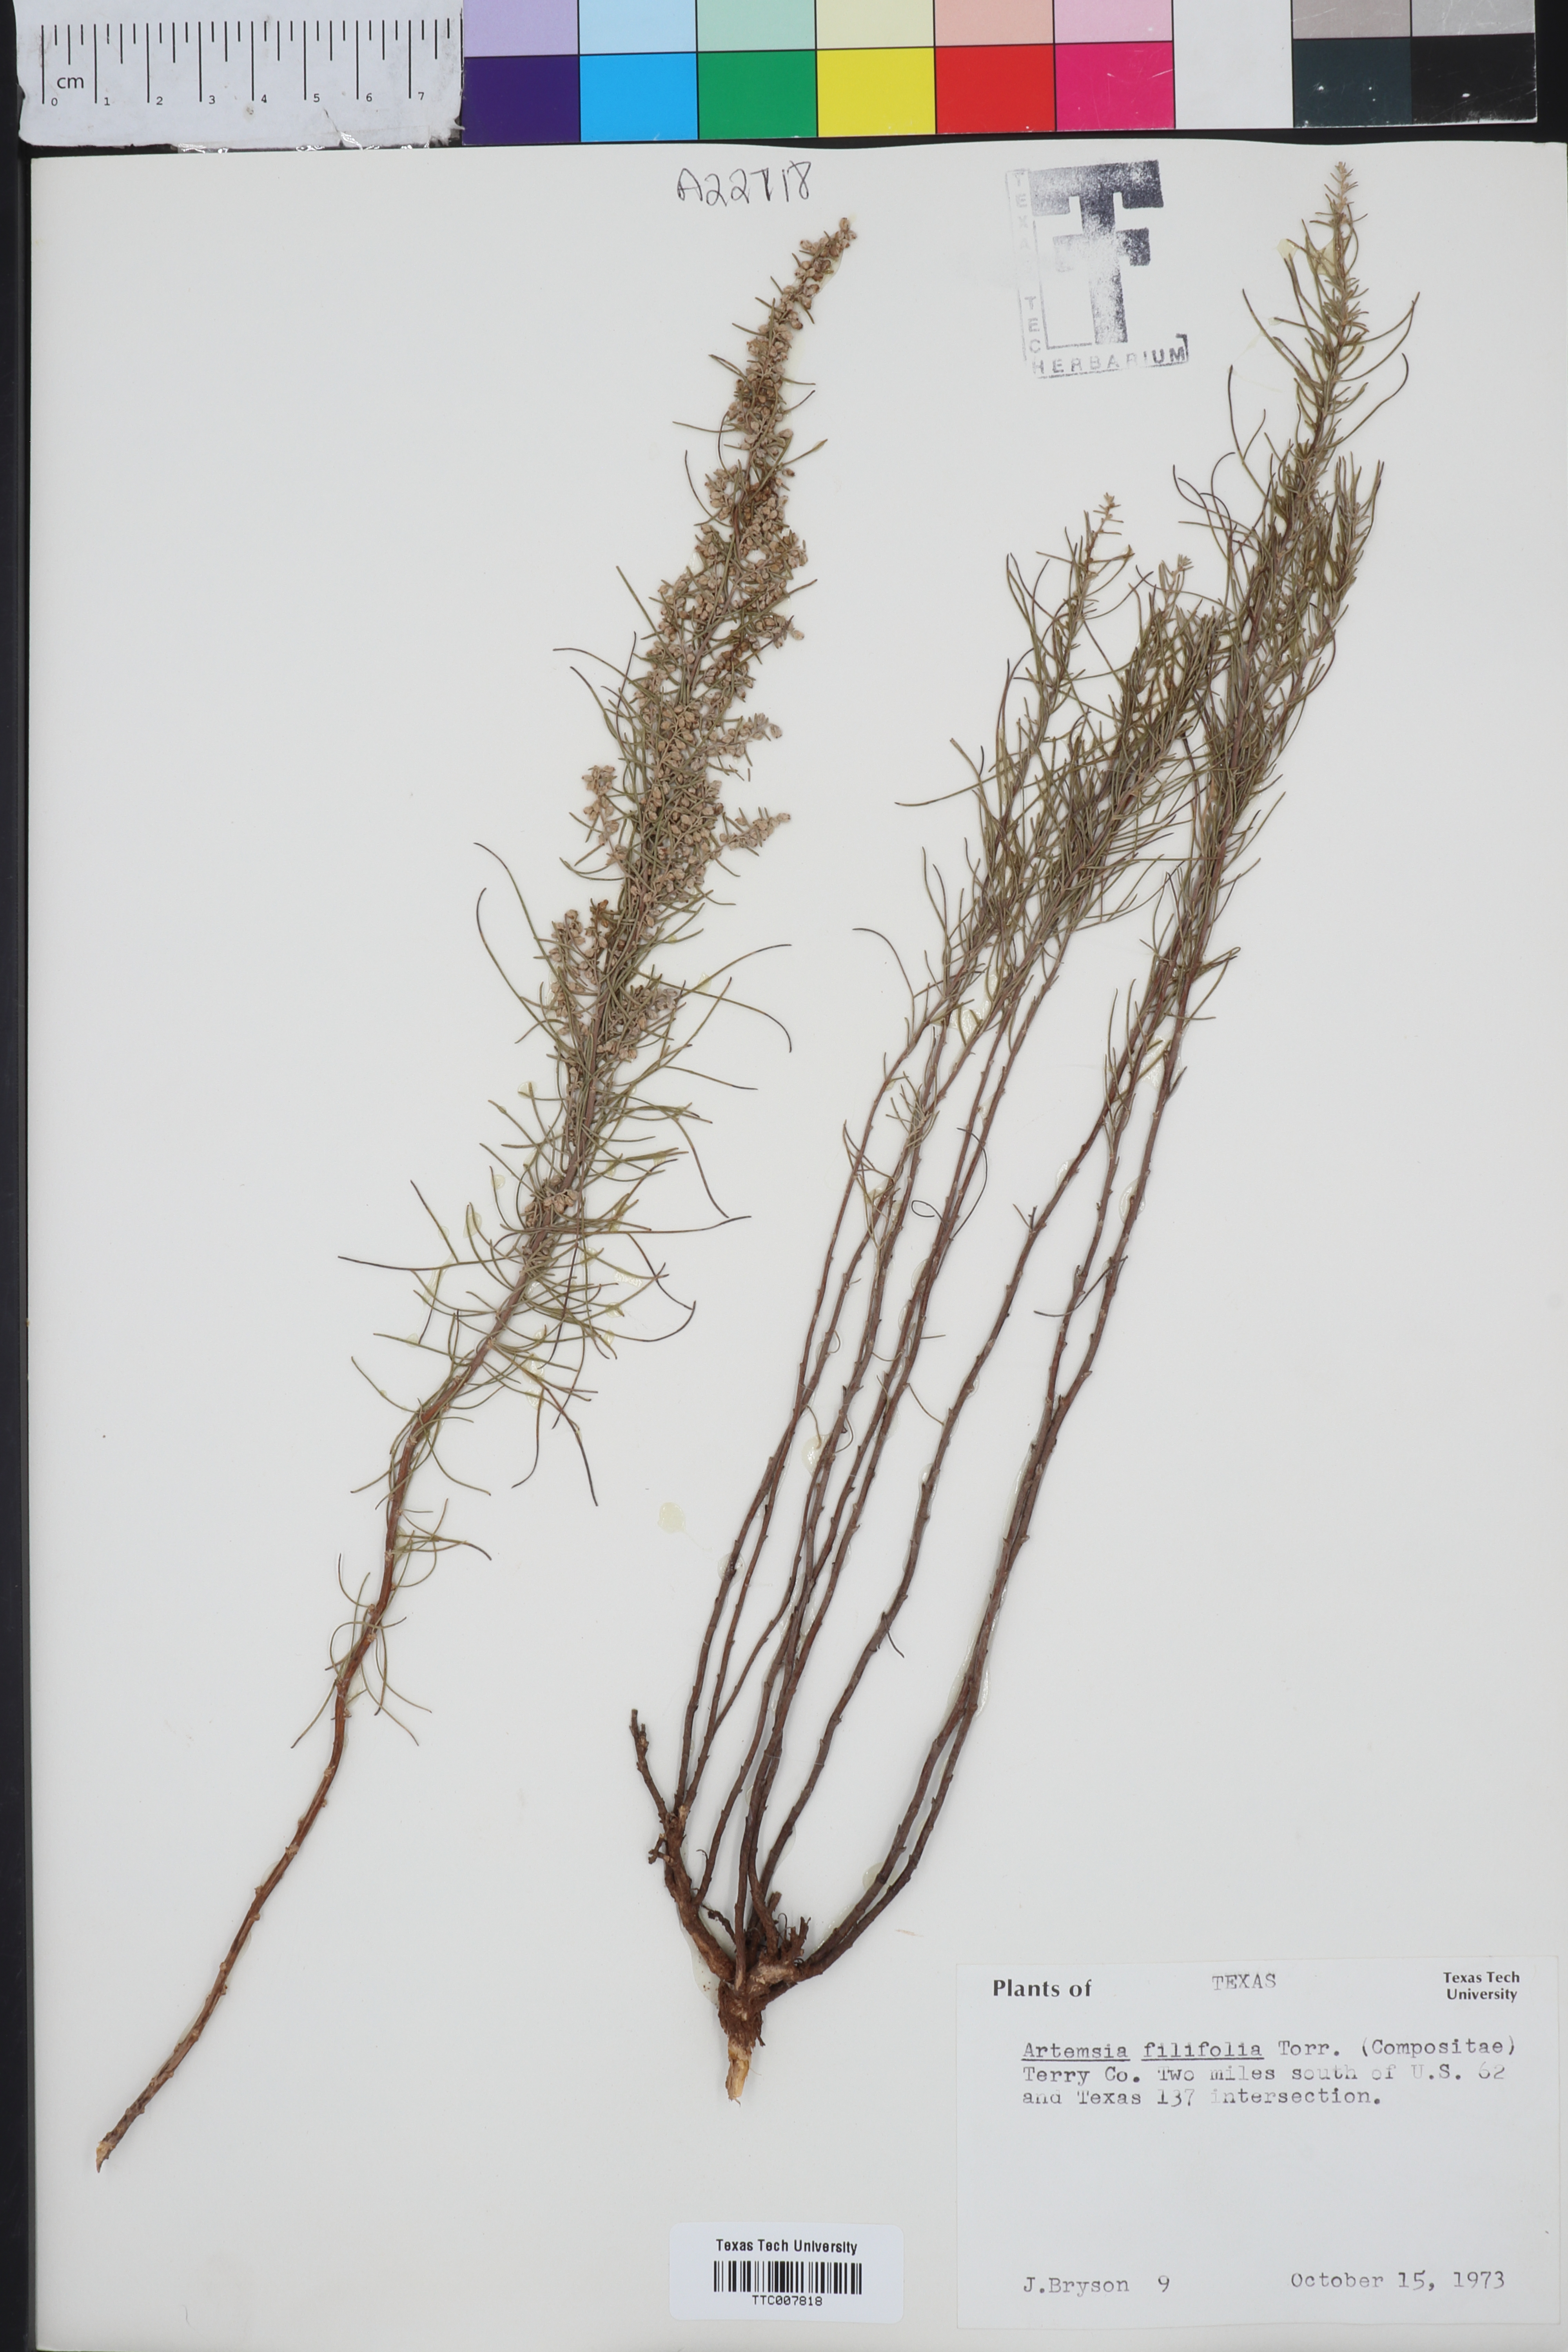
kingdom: Plantae
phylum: Tracheophyta
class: Magnoliopsida
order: Asterales
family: Asteraceae
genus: Artemisia
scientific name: Artemisia filifolia
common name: Sand-sage
